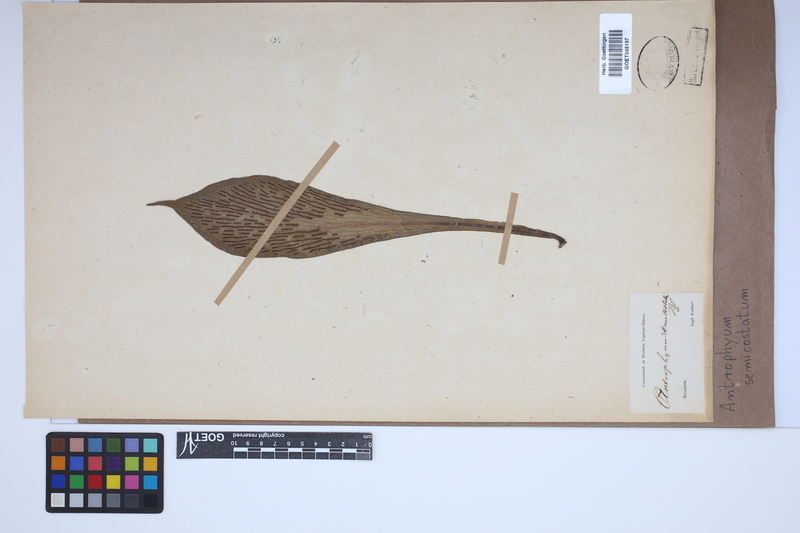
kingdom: Plantae
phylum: Tracheophyta
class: Polypodiopsida
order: Polypodiales
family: Pteridaceae
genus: Antrophyum
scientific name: Antrophyum semicostatum
